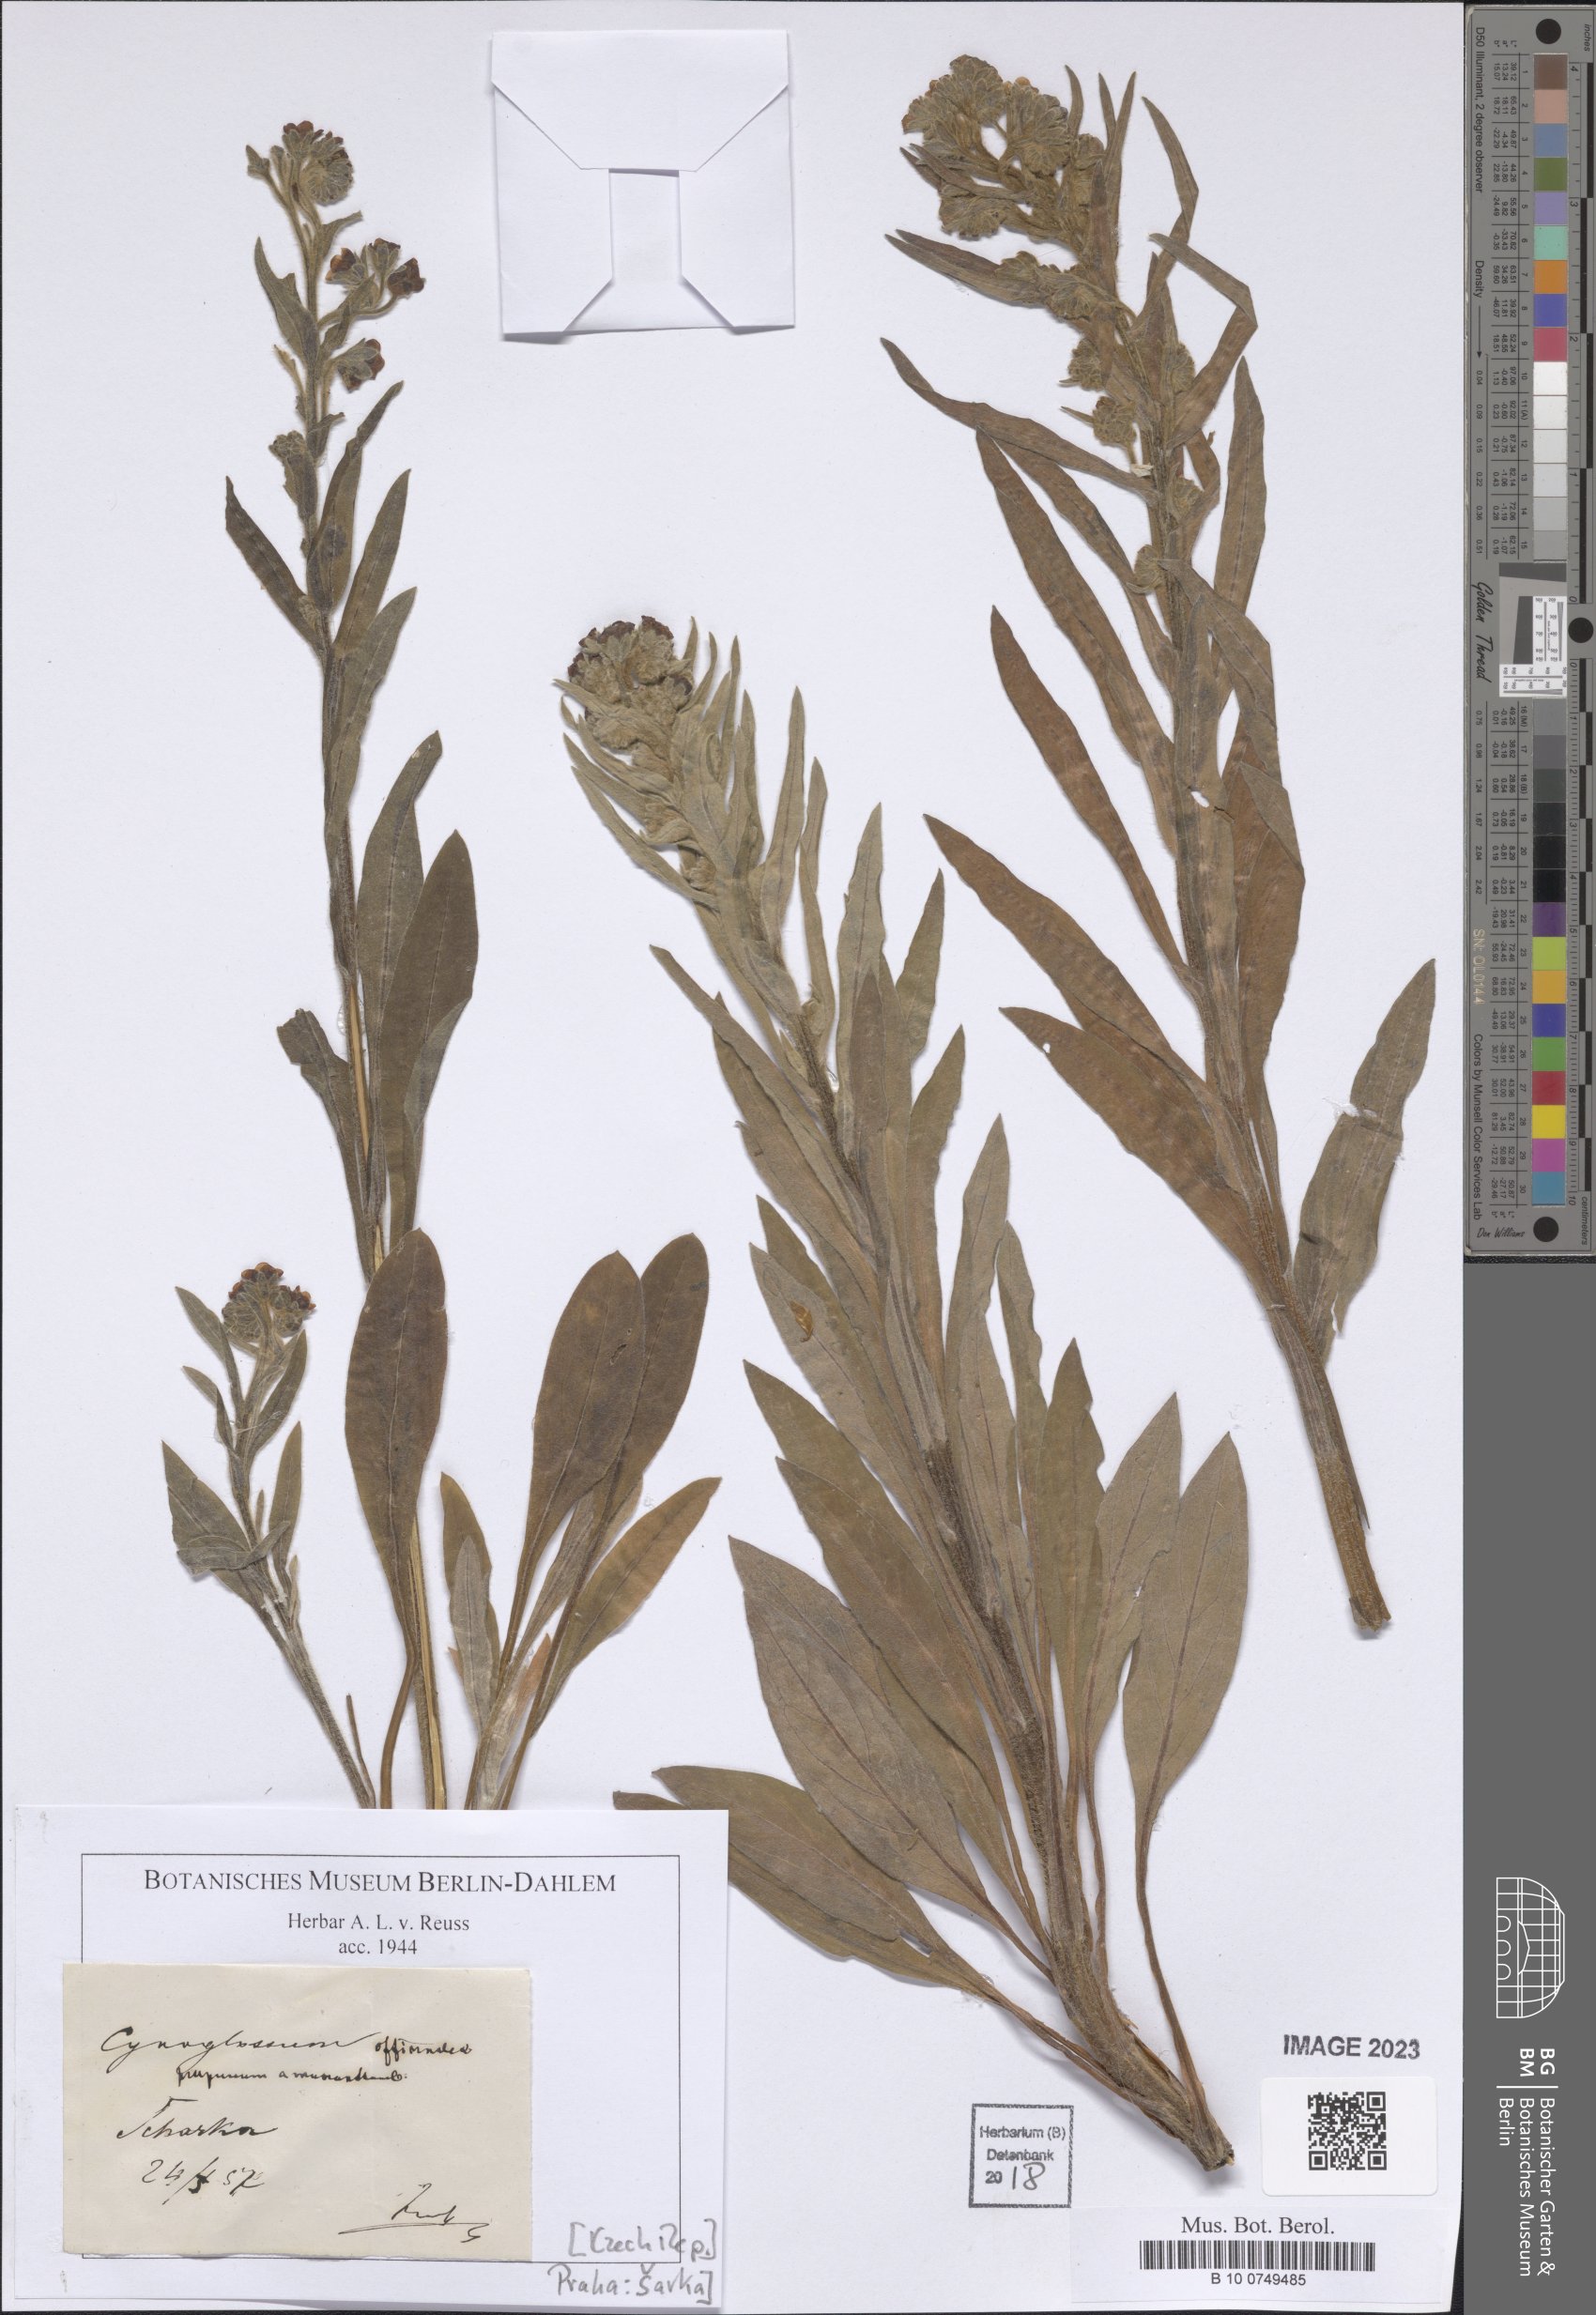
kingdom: Plantae
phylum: Tracheophyta
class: Magnoliopsida
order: Boraginales
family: Boraginaceae
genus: Cynoglossum
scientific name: Cynoglossum officinale
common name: Hound's-tongue
